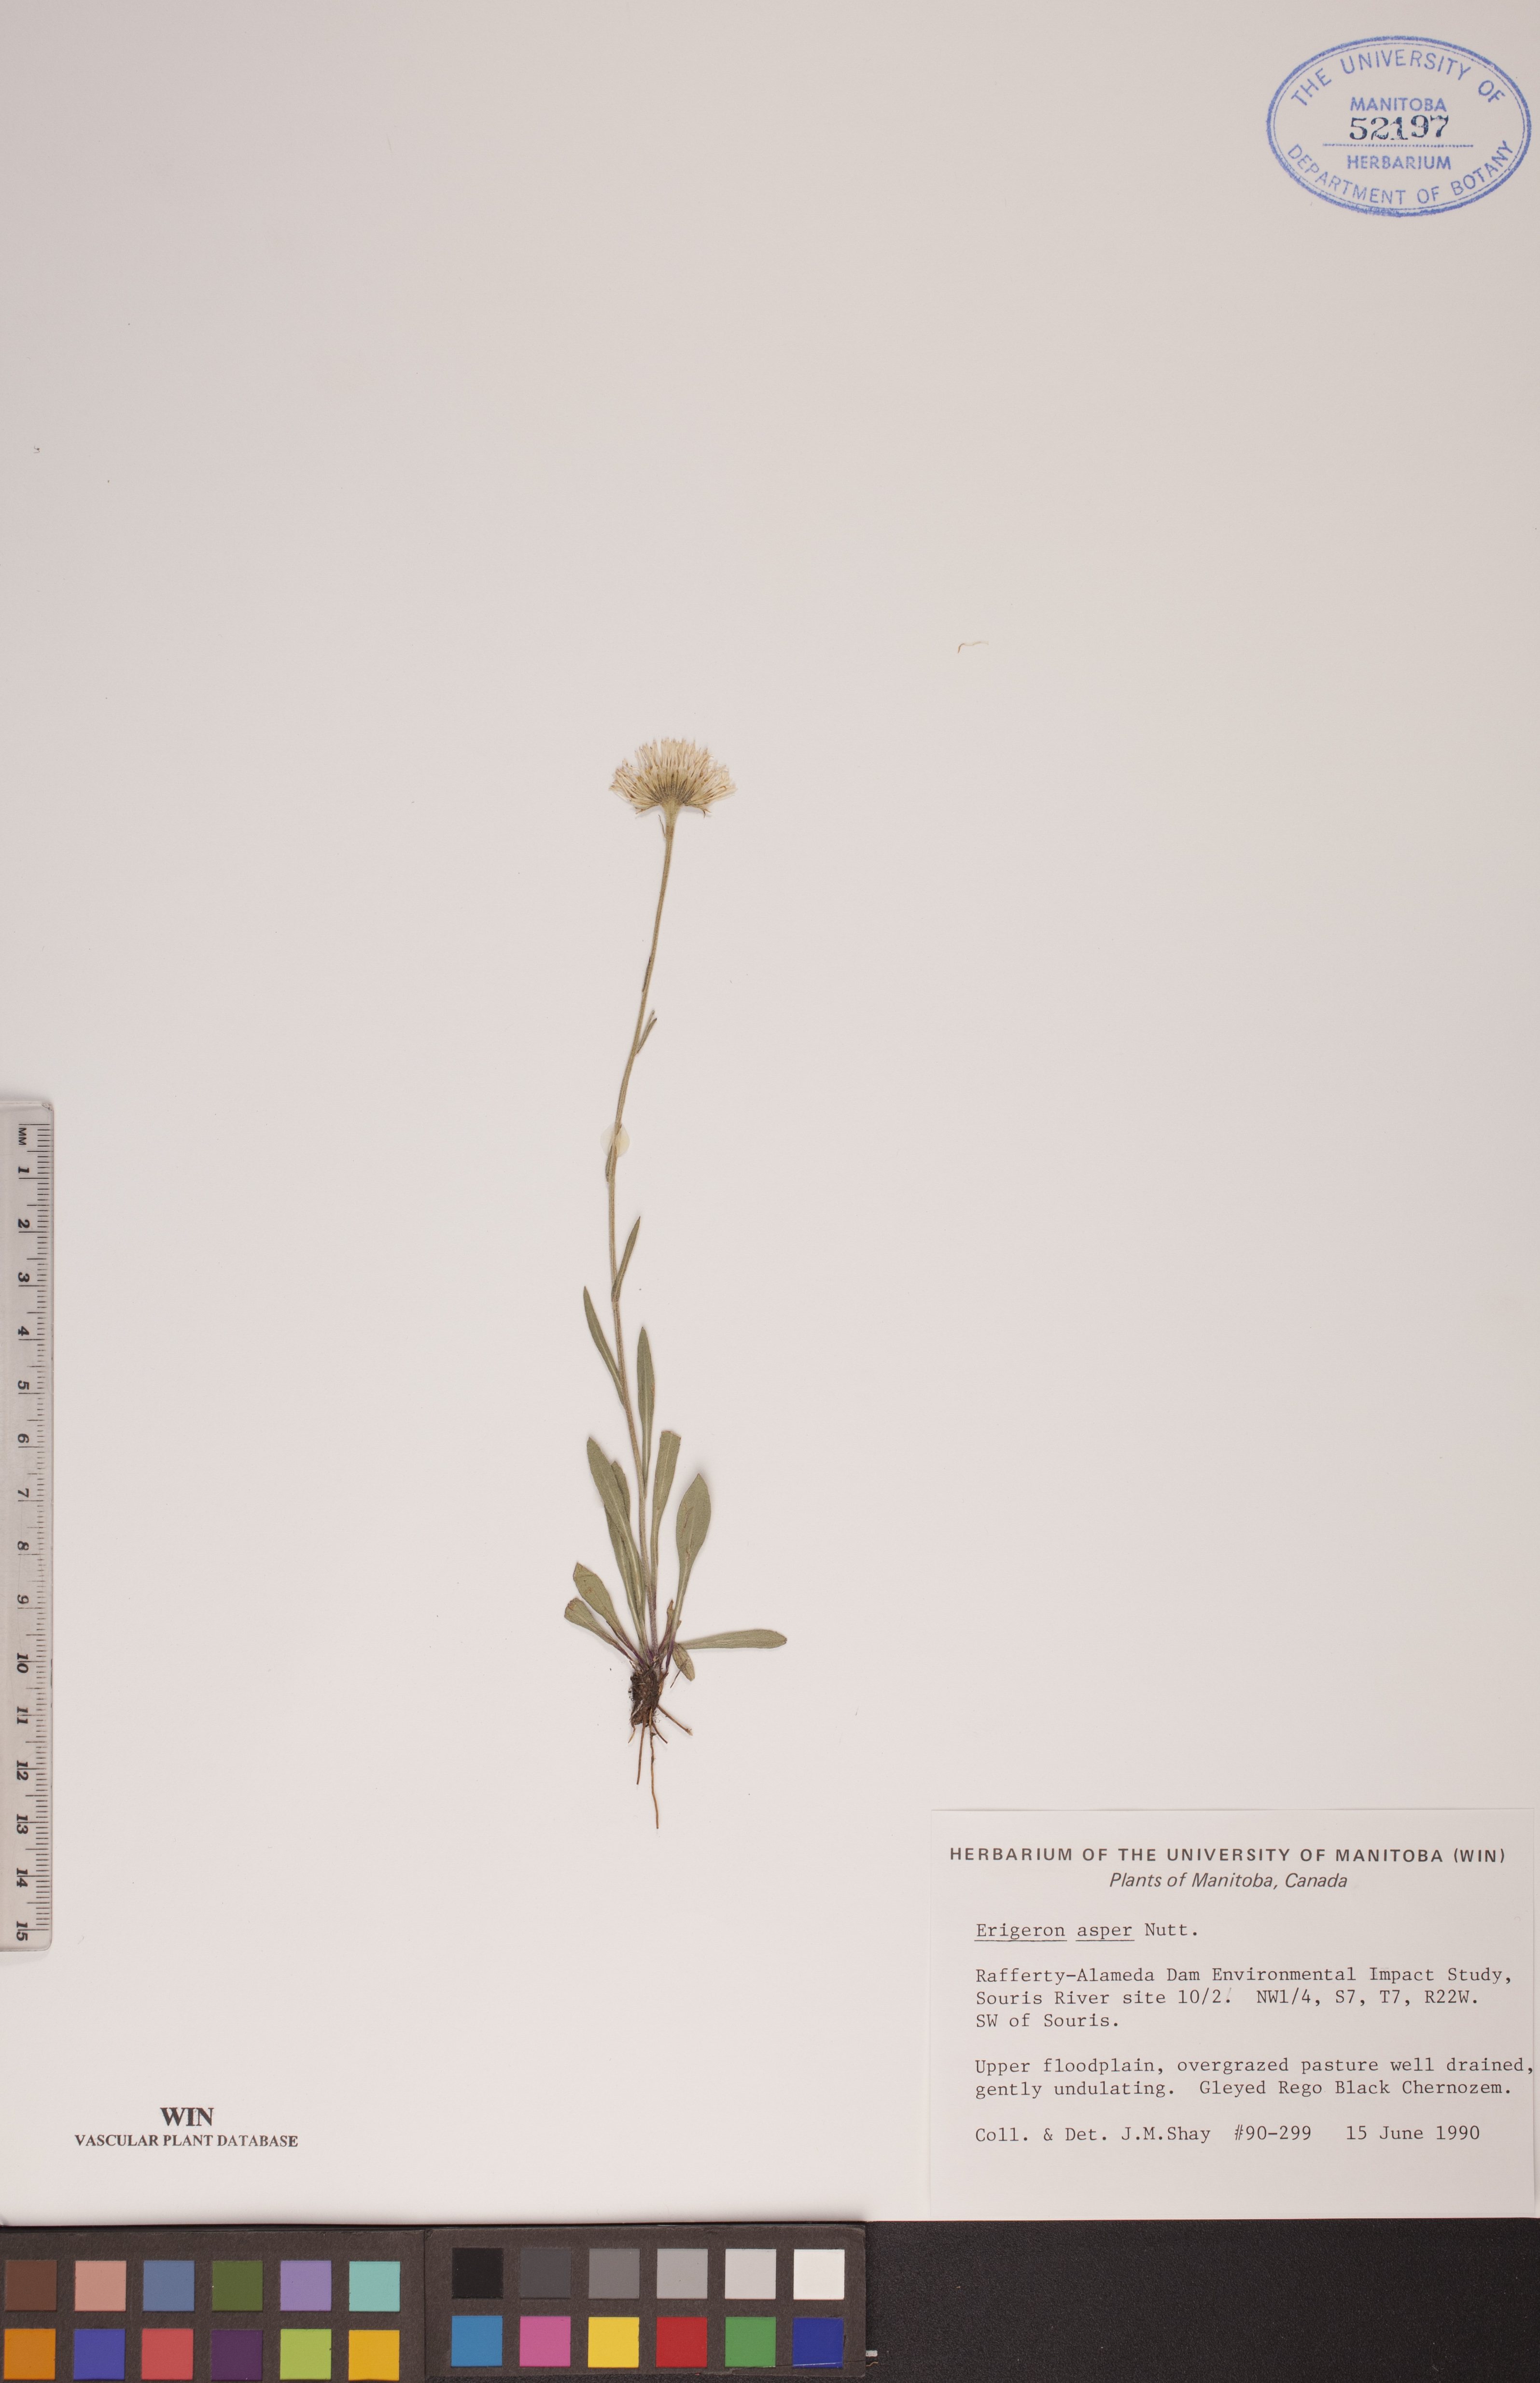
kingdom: Plantae
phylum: Tracheophyta
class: Magnoliopsida
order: Asterales
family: Asteraceae
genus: Erigeron
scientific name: Erigeron glabellus
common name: Smooth fleabane
